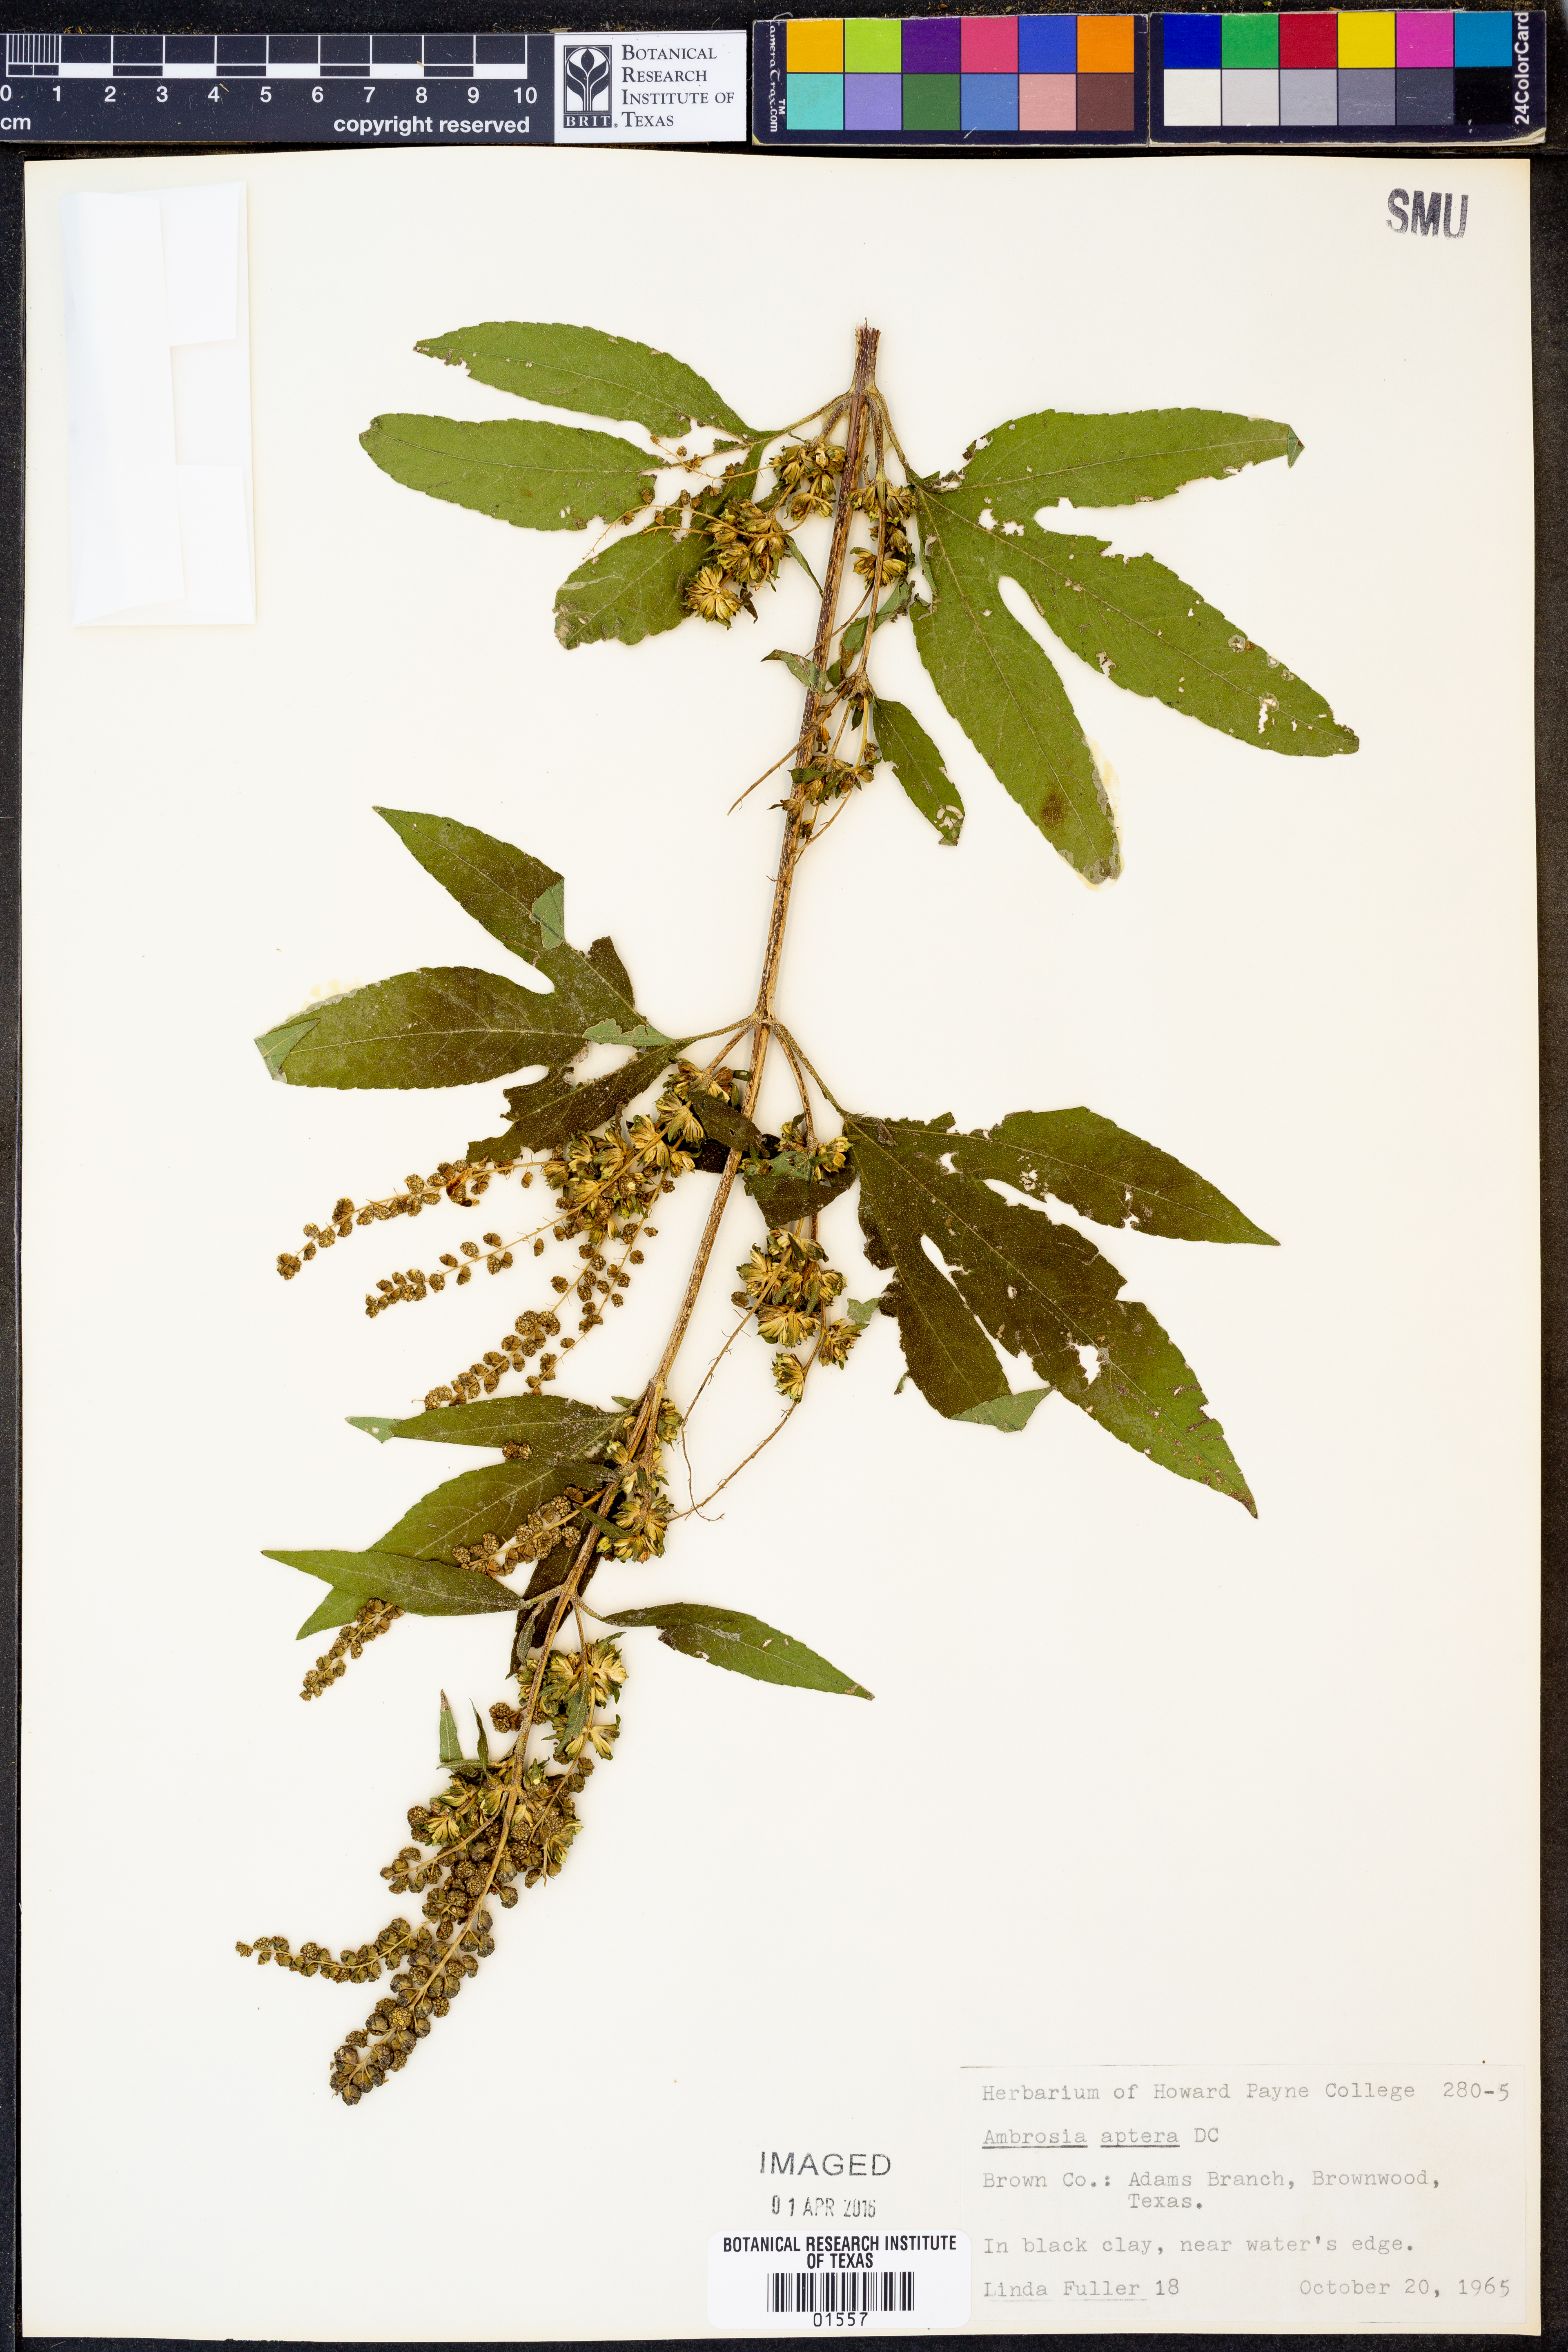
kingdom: Plantae
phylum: Tracheophyta
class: Magnoliopsida
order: Asterales
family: Asteraceae
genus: Ambrosia
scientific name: Ambrosia trifida
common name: Giant ragweed
